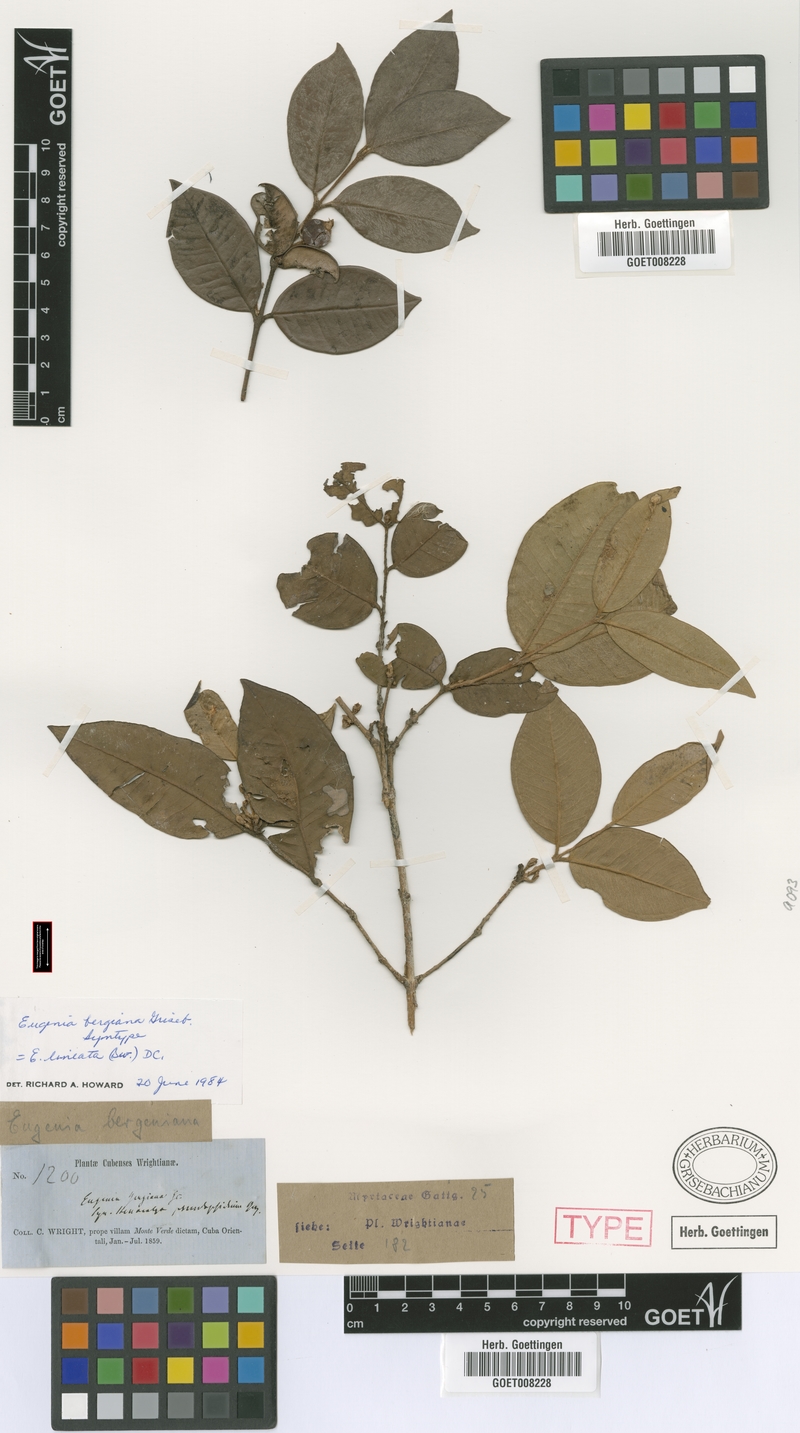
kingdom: Plantae
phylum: Tracheophyta
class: Magnoliopsida
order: Myrtales
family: Myrtaceae
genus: Eugenia
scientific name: Eugenia lineata
